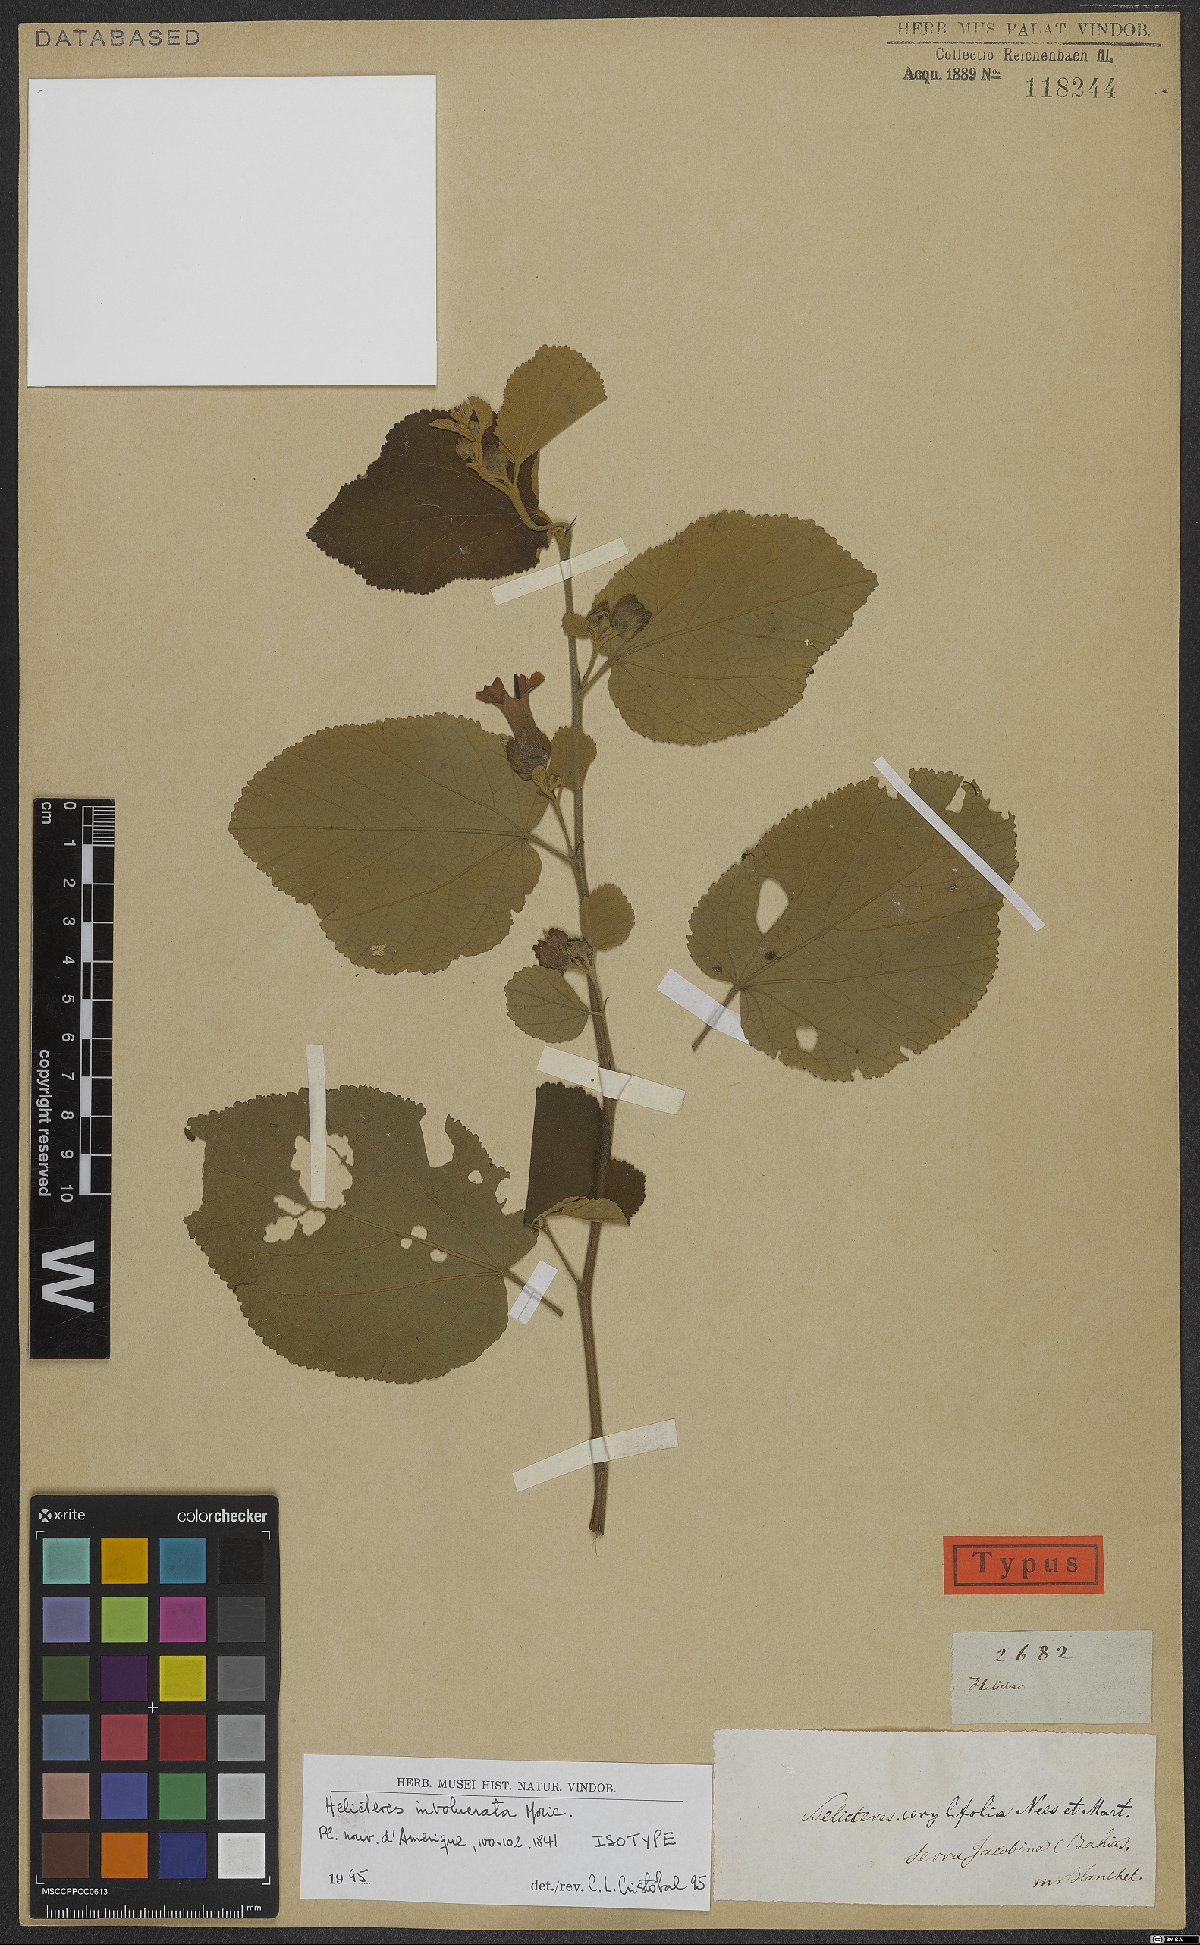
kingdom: Plantae
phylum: Tracheophyta
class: Magnoliopsida
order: Malvales
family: Malvaceae
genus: Helicteres
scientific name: Helicteres corylifolia
